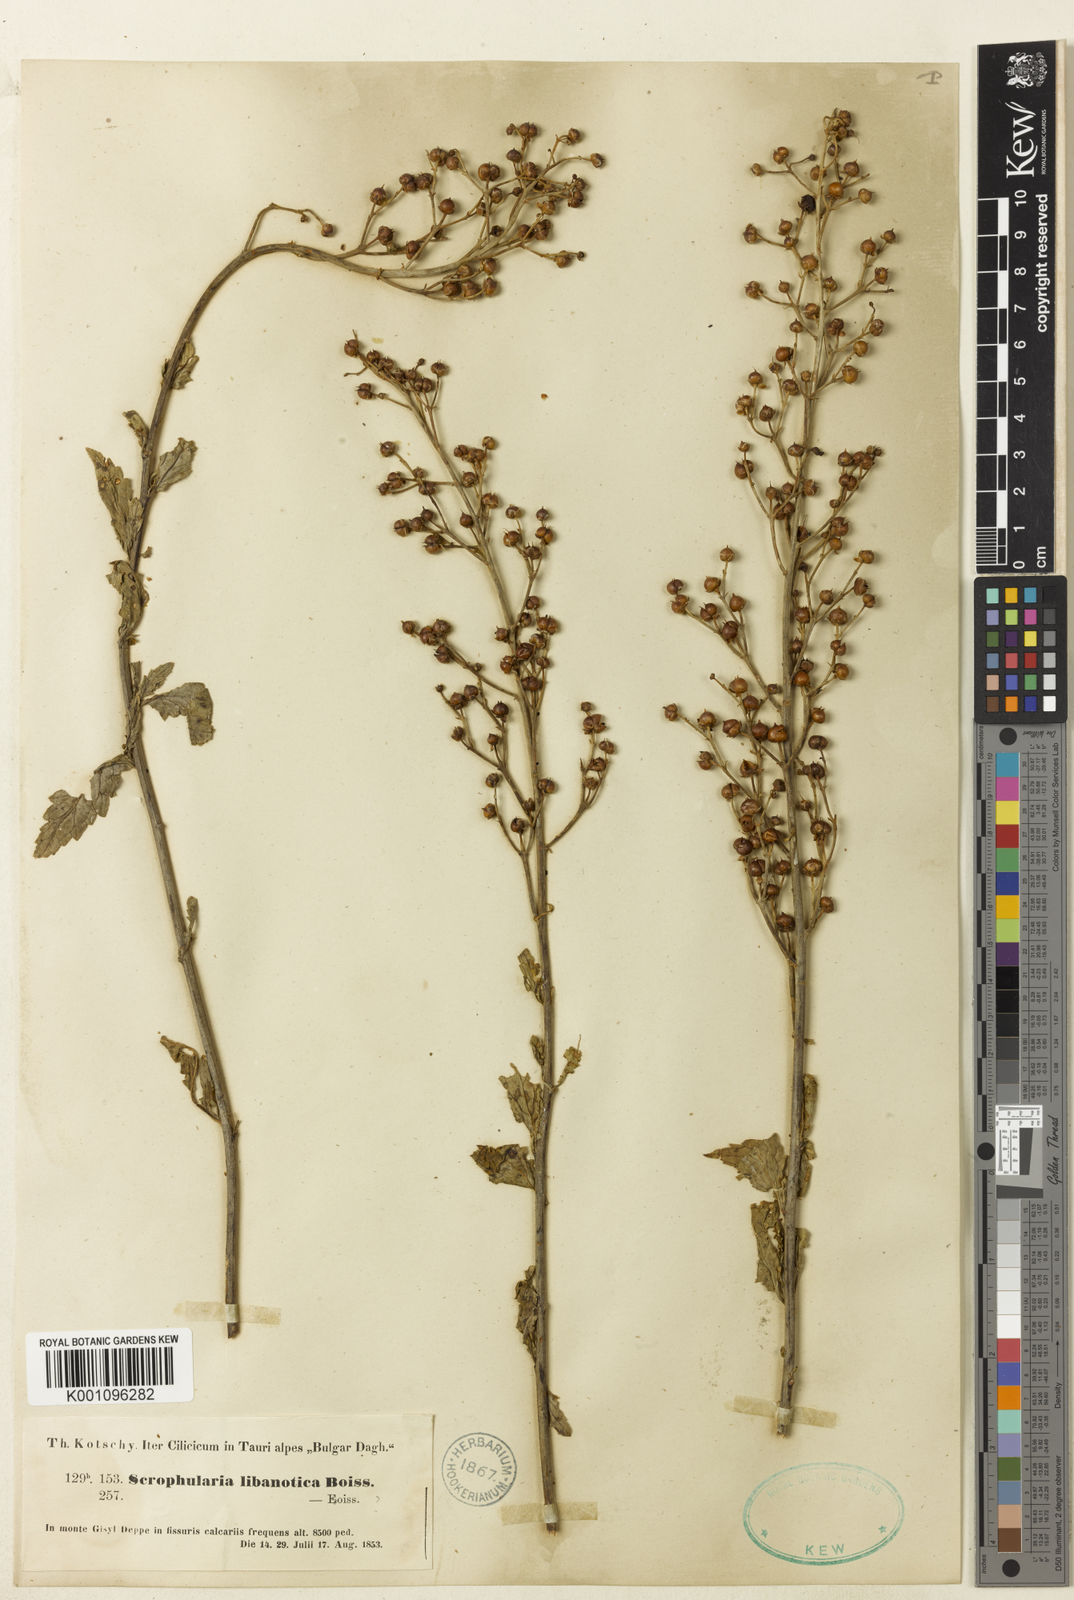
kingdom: Plantae
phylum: Tracheophyta
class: Magnoliopsida
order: Lamiales
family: Scrophulariaceae
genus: Scrophularia
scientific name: Scrophularia heterophylla
